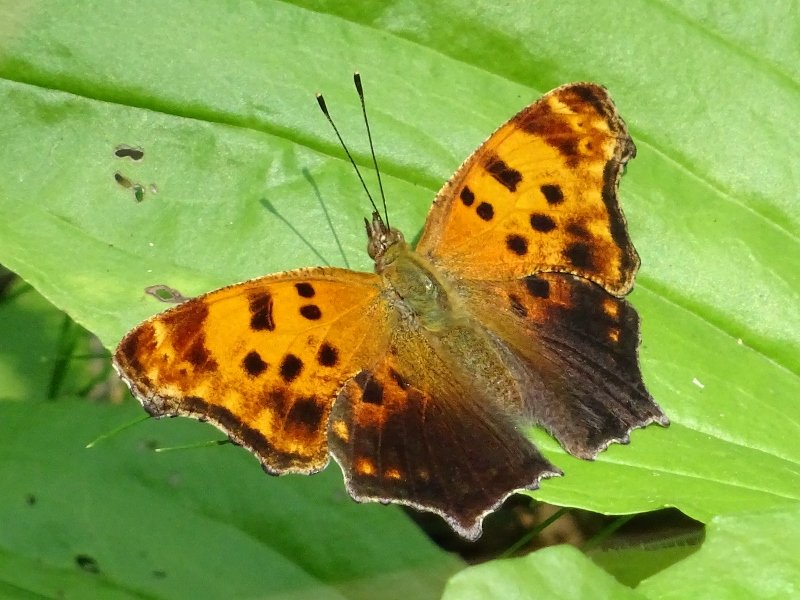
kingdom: Animalia
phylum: Arthropoda
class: Insecta
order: Lepidoptera
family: Nymphalidae
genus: Polygonia
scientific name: Polygonia comma
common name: Eastern Comma
